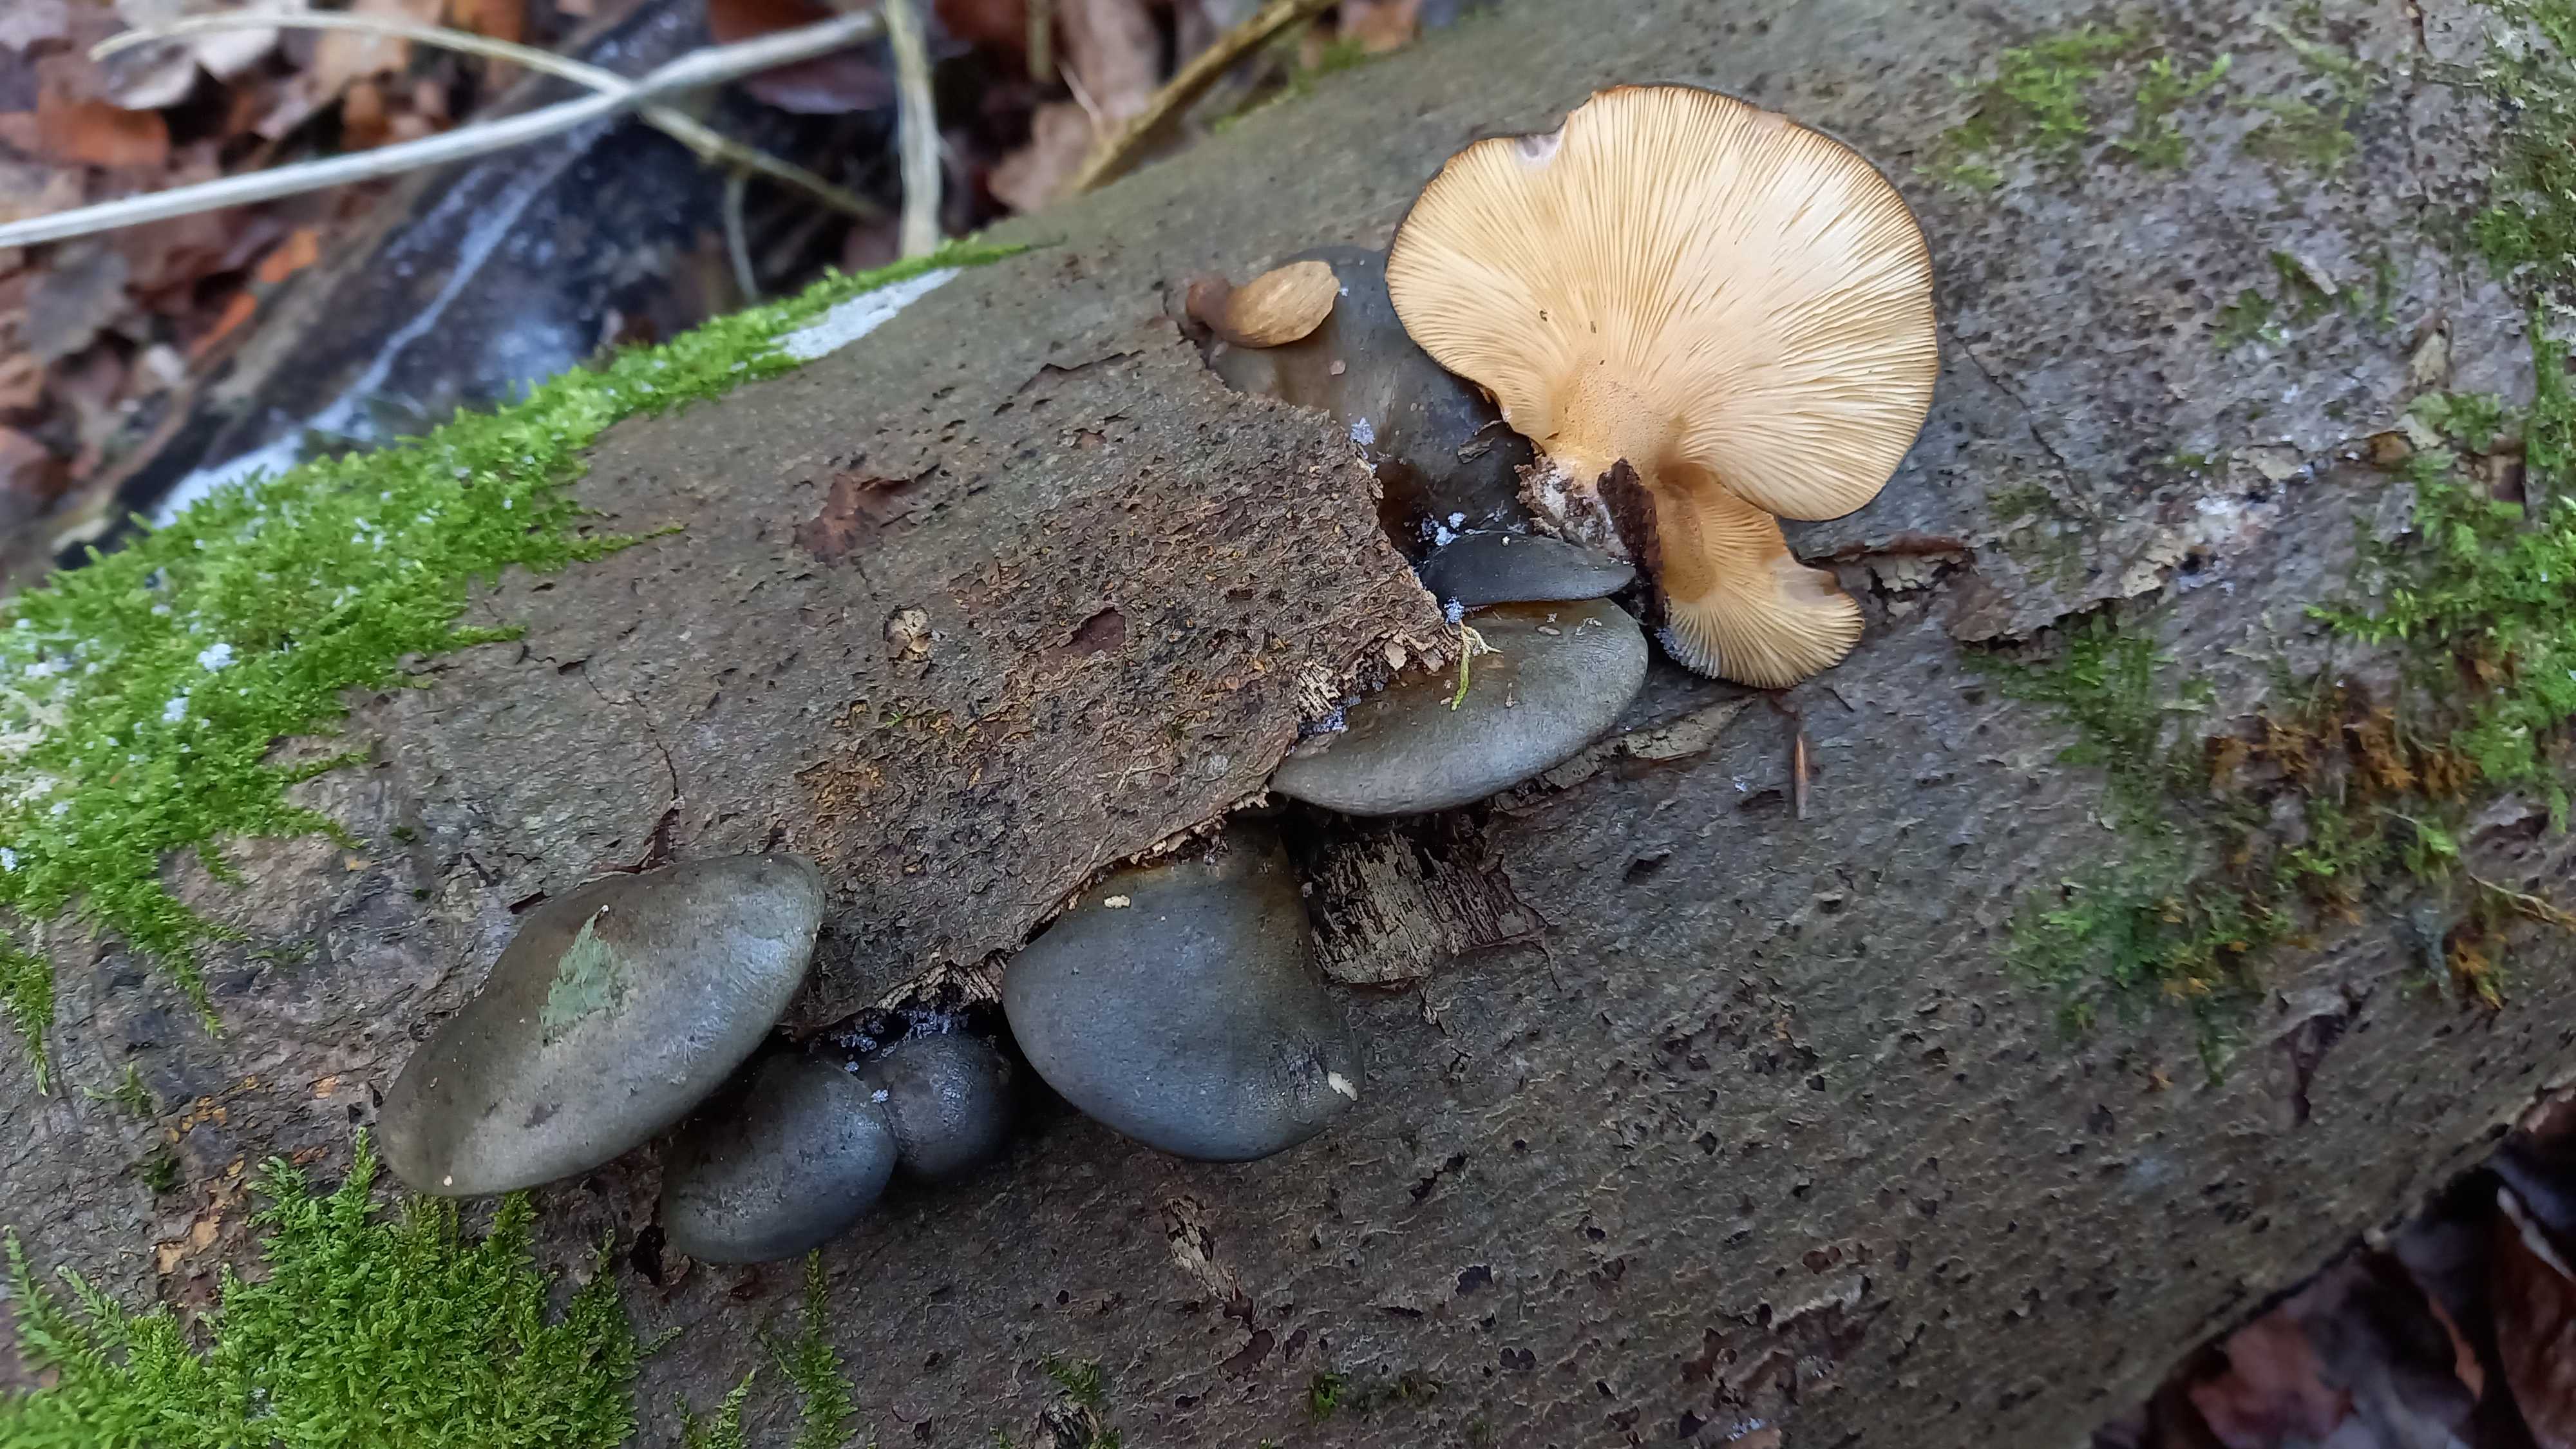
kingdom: Fungi
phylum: Basidiomycota
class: Agaricomycetes
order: Agaricales
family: Sarcomyxaceae
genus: Sarcomyxa
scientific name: Sarcomyxa serotina
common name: gummihat
